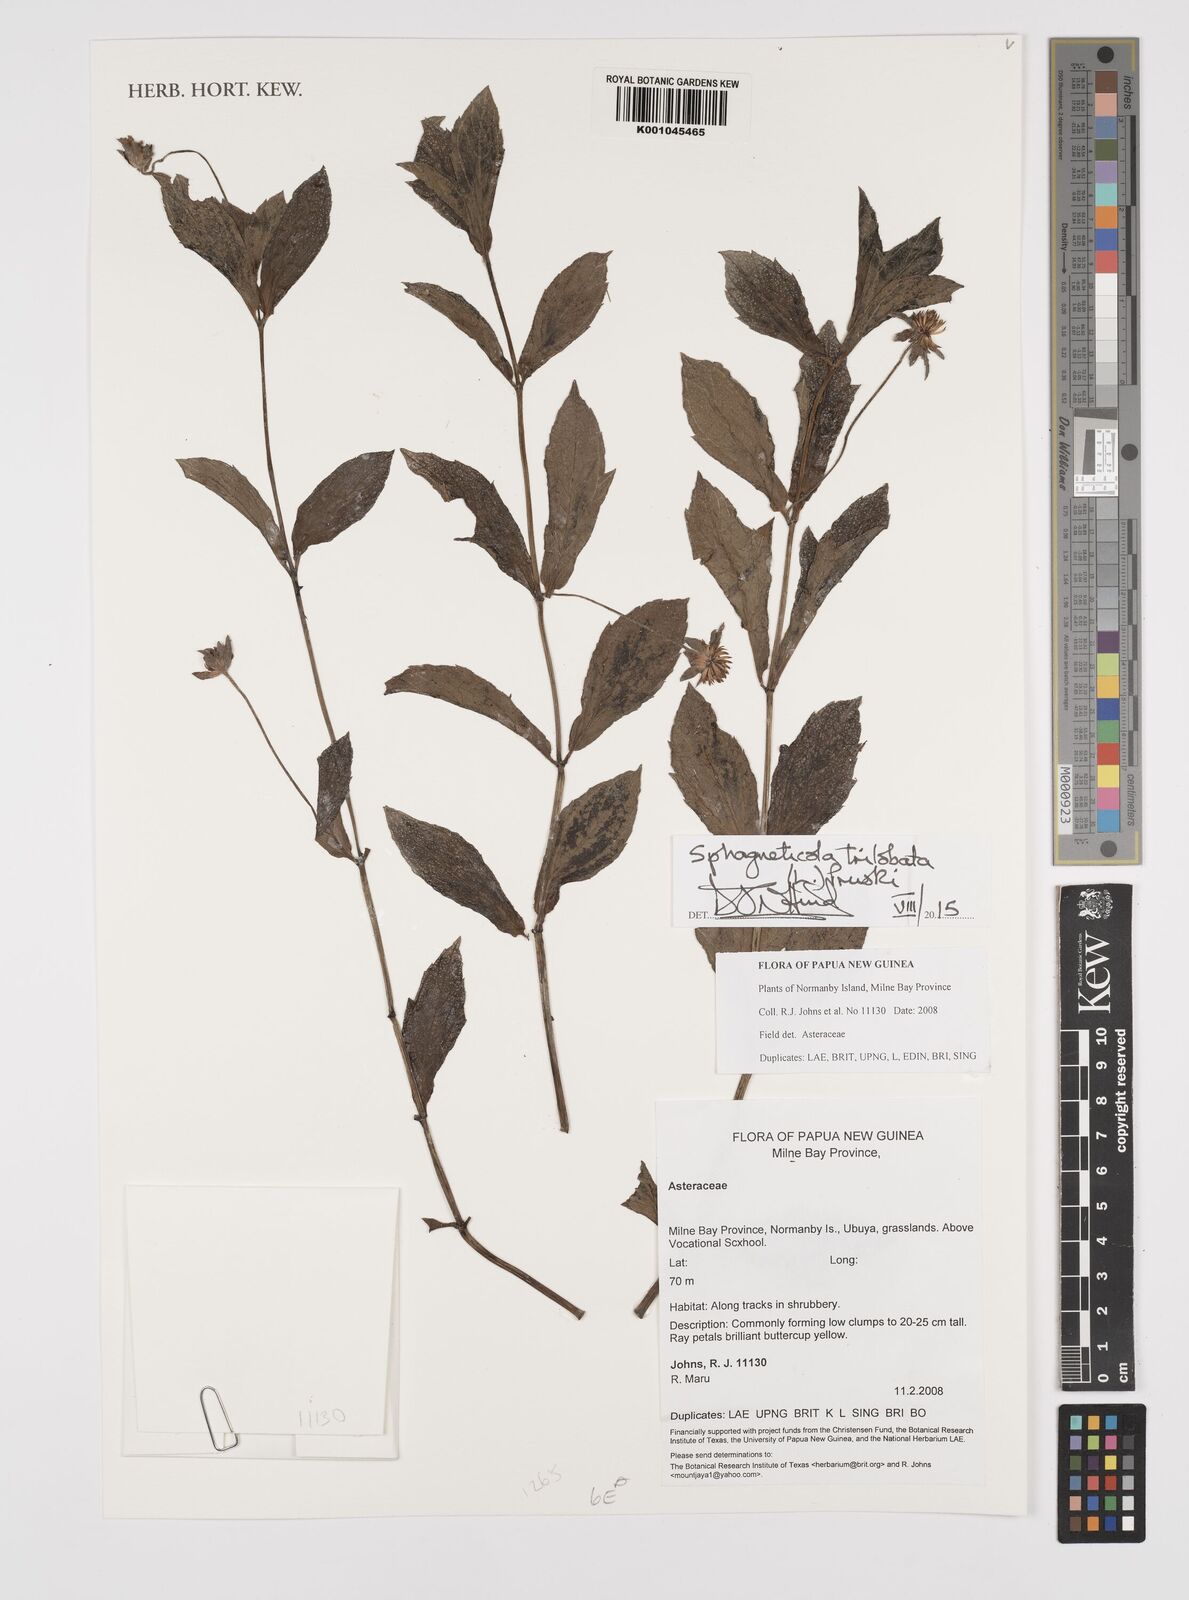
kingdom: Plantae
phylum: Tracheophyta
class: Magnoliopsida
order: Asterales
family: Asteraceae
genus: Sphagneticola
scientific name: Sphagneticola trilobata
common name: Bay biscayne creeping-oxeye
